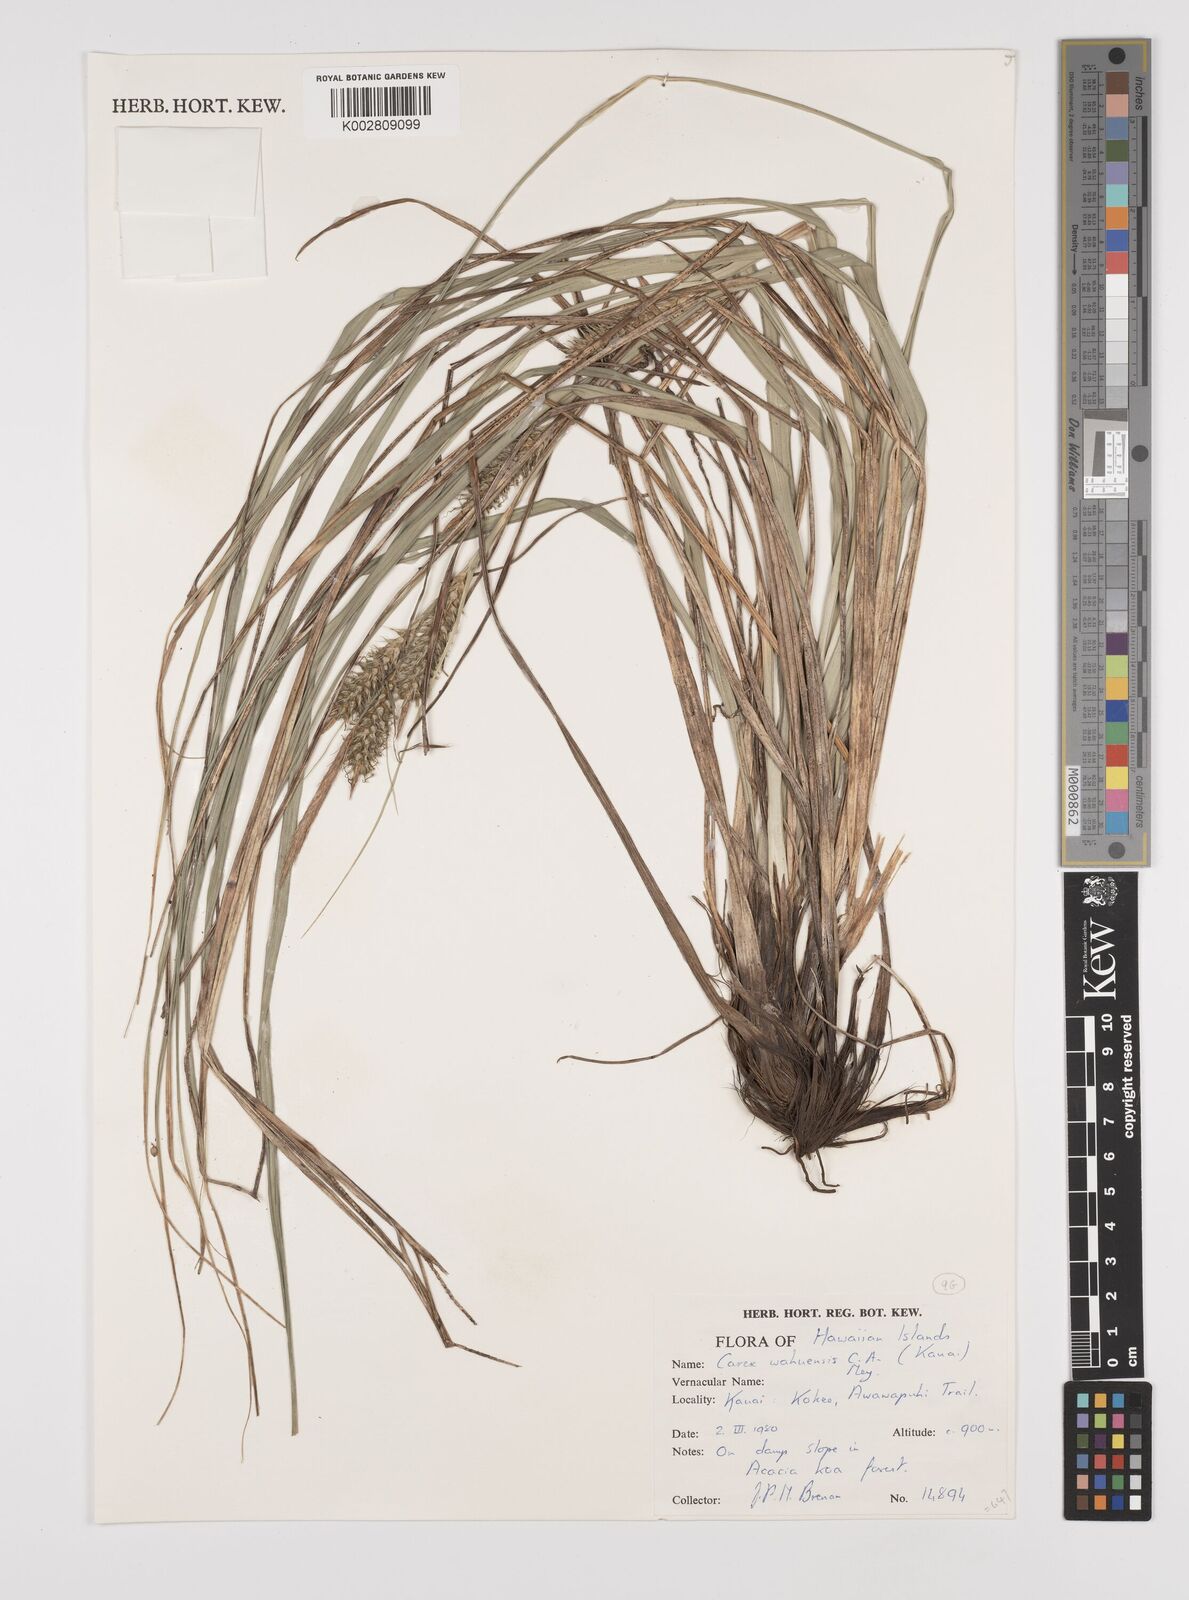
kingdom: Plantae
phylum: Tracheophyta
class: Liliopsida
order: Poales
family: Cyperaceae
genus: Carex
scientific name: Carex wahuensis
